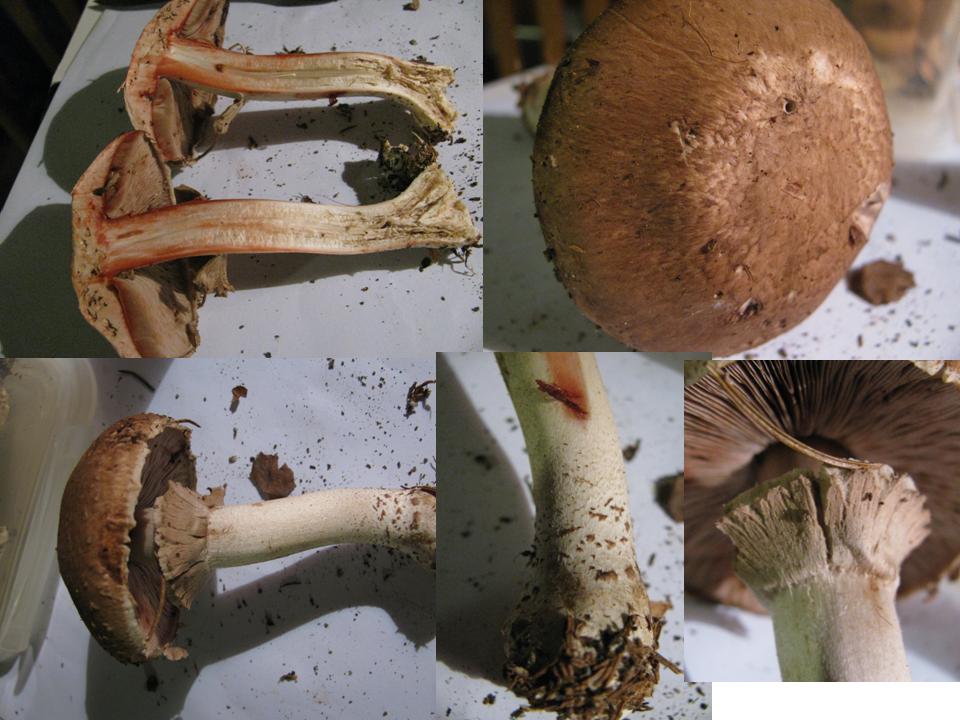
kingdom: Fungi
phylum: Basidiomycota
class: Agaricomycetes
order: Agaricales
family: Agaricaceae
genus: Agaricus
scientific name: Agaricus sylvaticus
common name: lille blod-champignon
